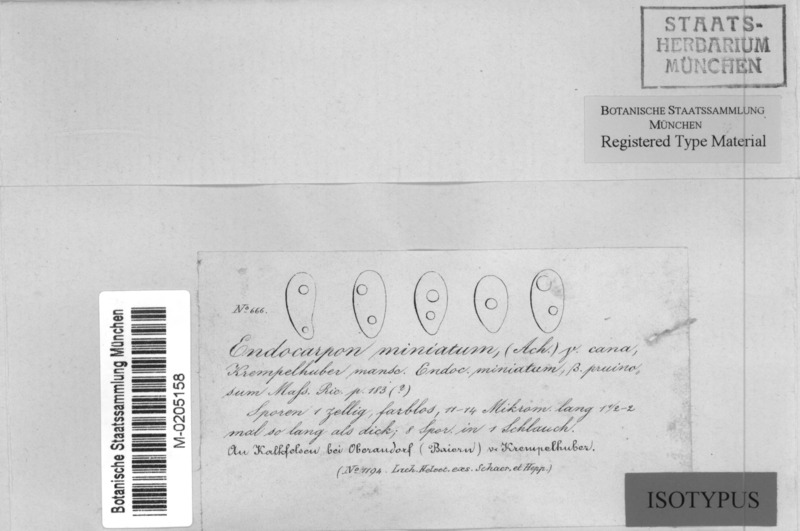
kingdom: Fungi
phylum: Ascomycota
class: Eurotiomycetes
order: Verrucariales
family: Verrucariaceae
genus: Dermatocarpon
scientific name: Dermatocarpon miniatum
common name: Leather lichen
